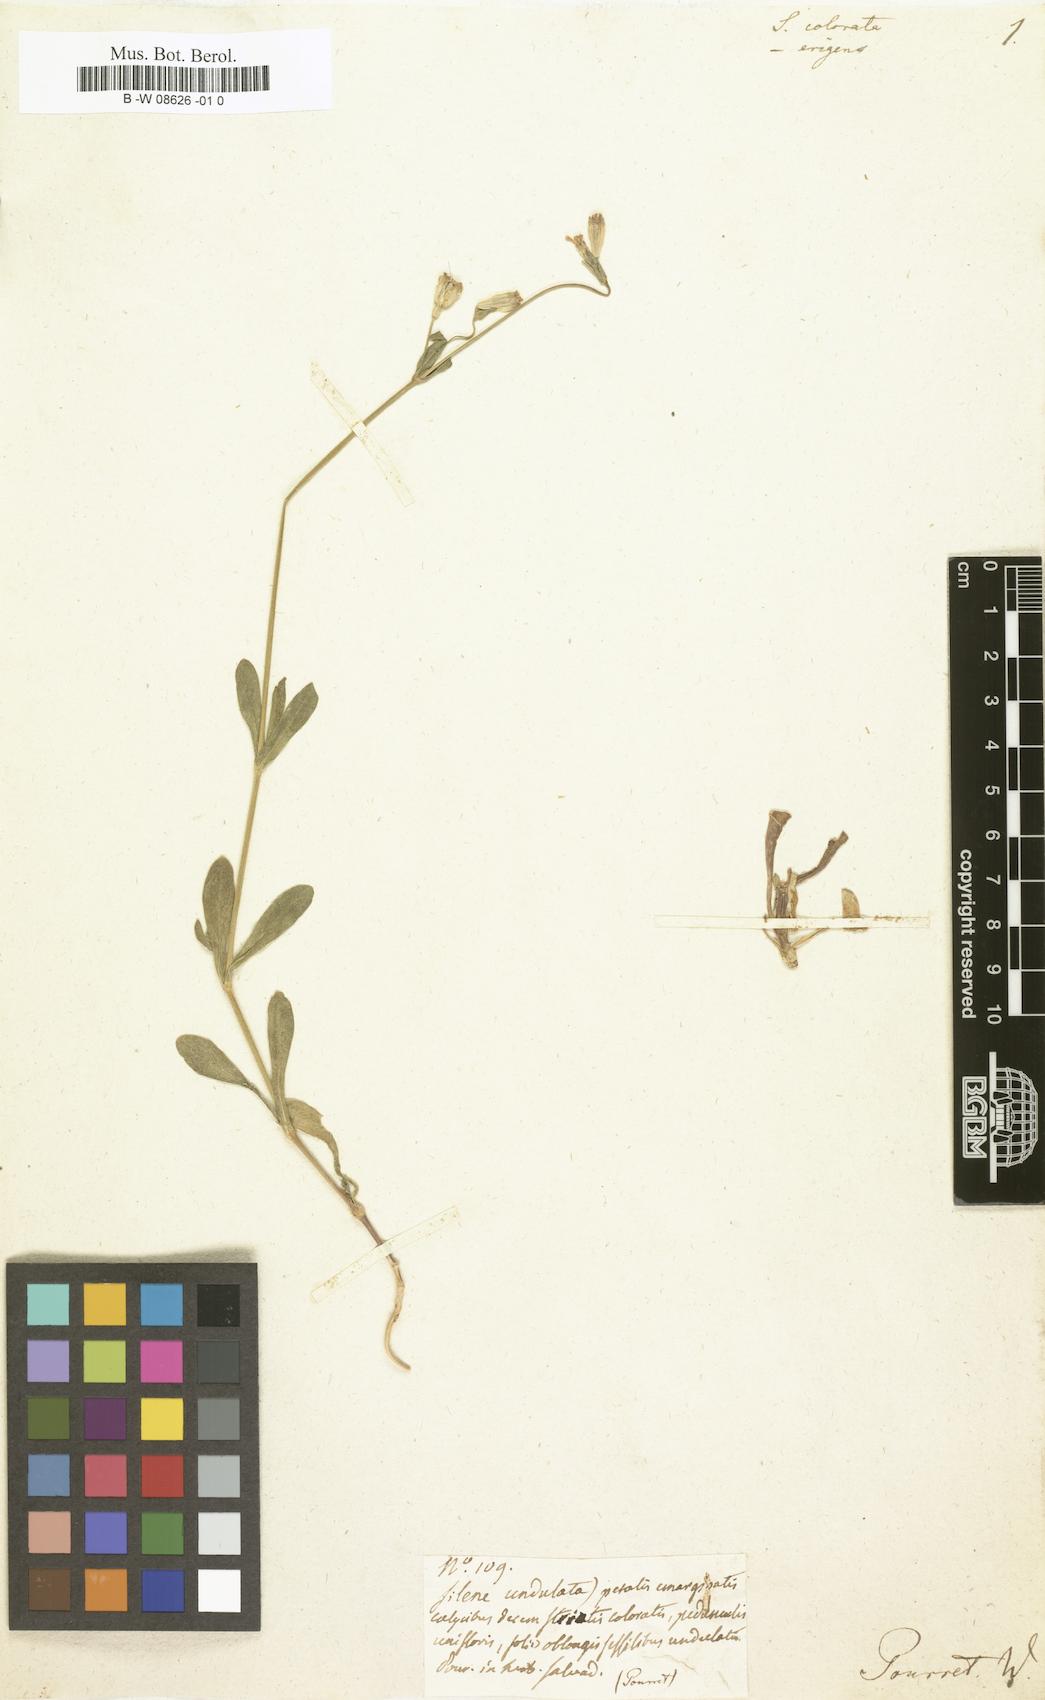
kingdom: Plantae
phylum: Tracheophyta
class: Magnoliopsida
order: Caryophyllales
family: Caryophyllaceae
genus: Silene
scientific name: Silene colorata
